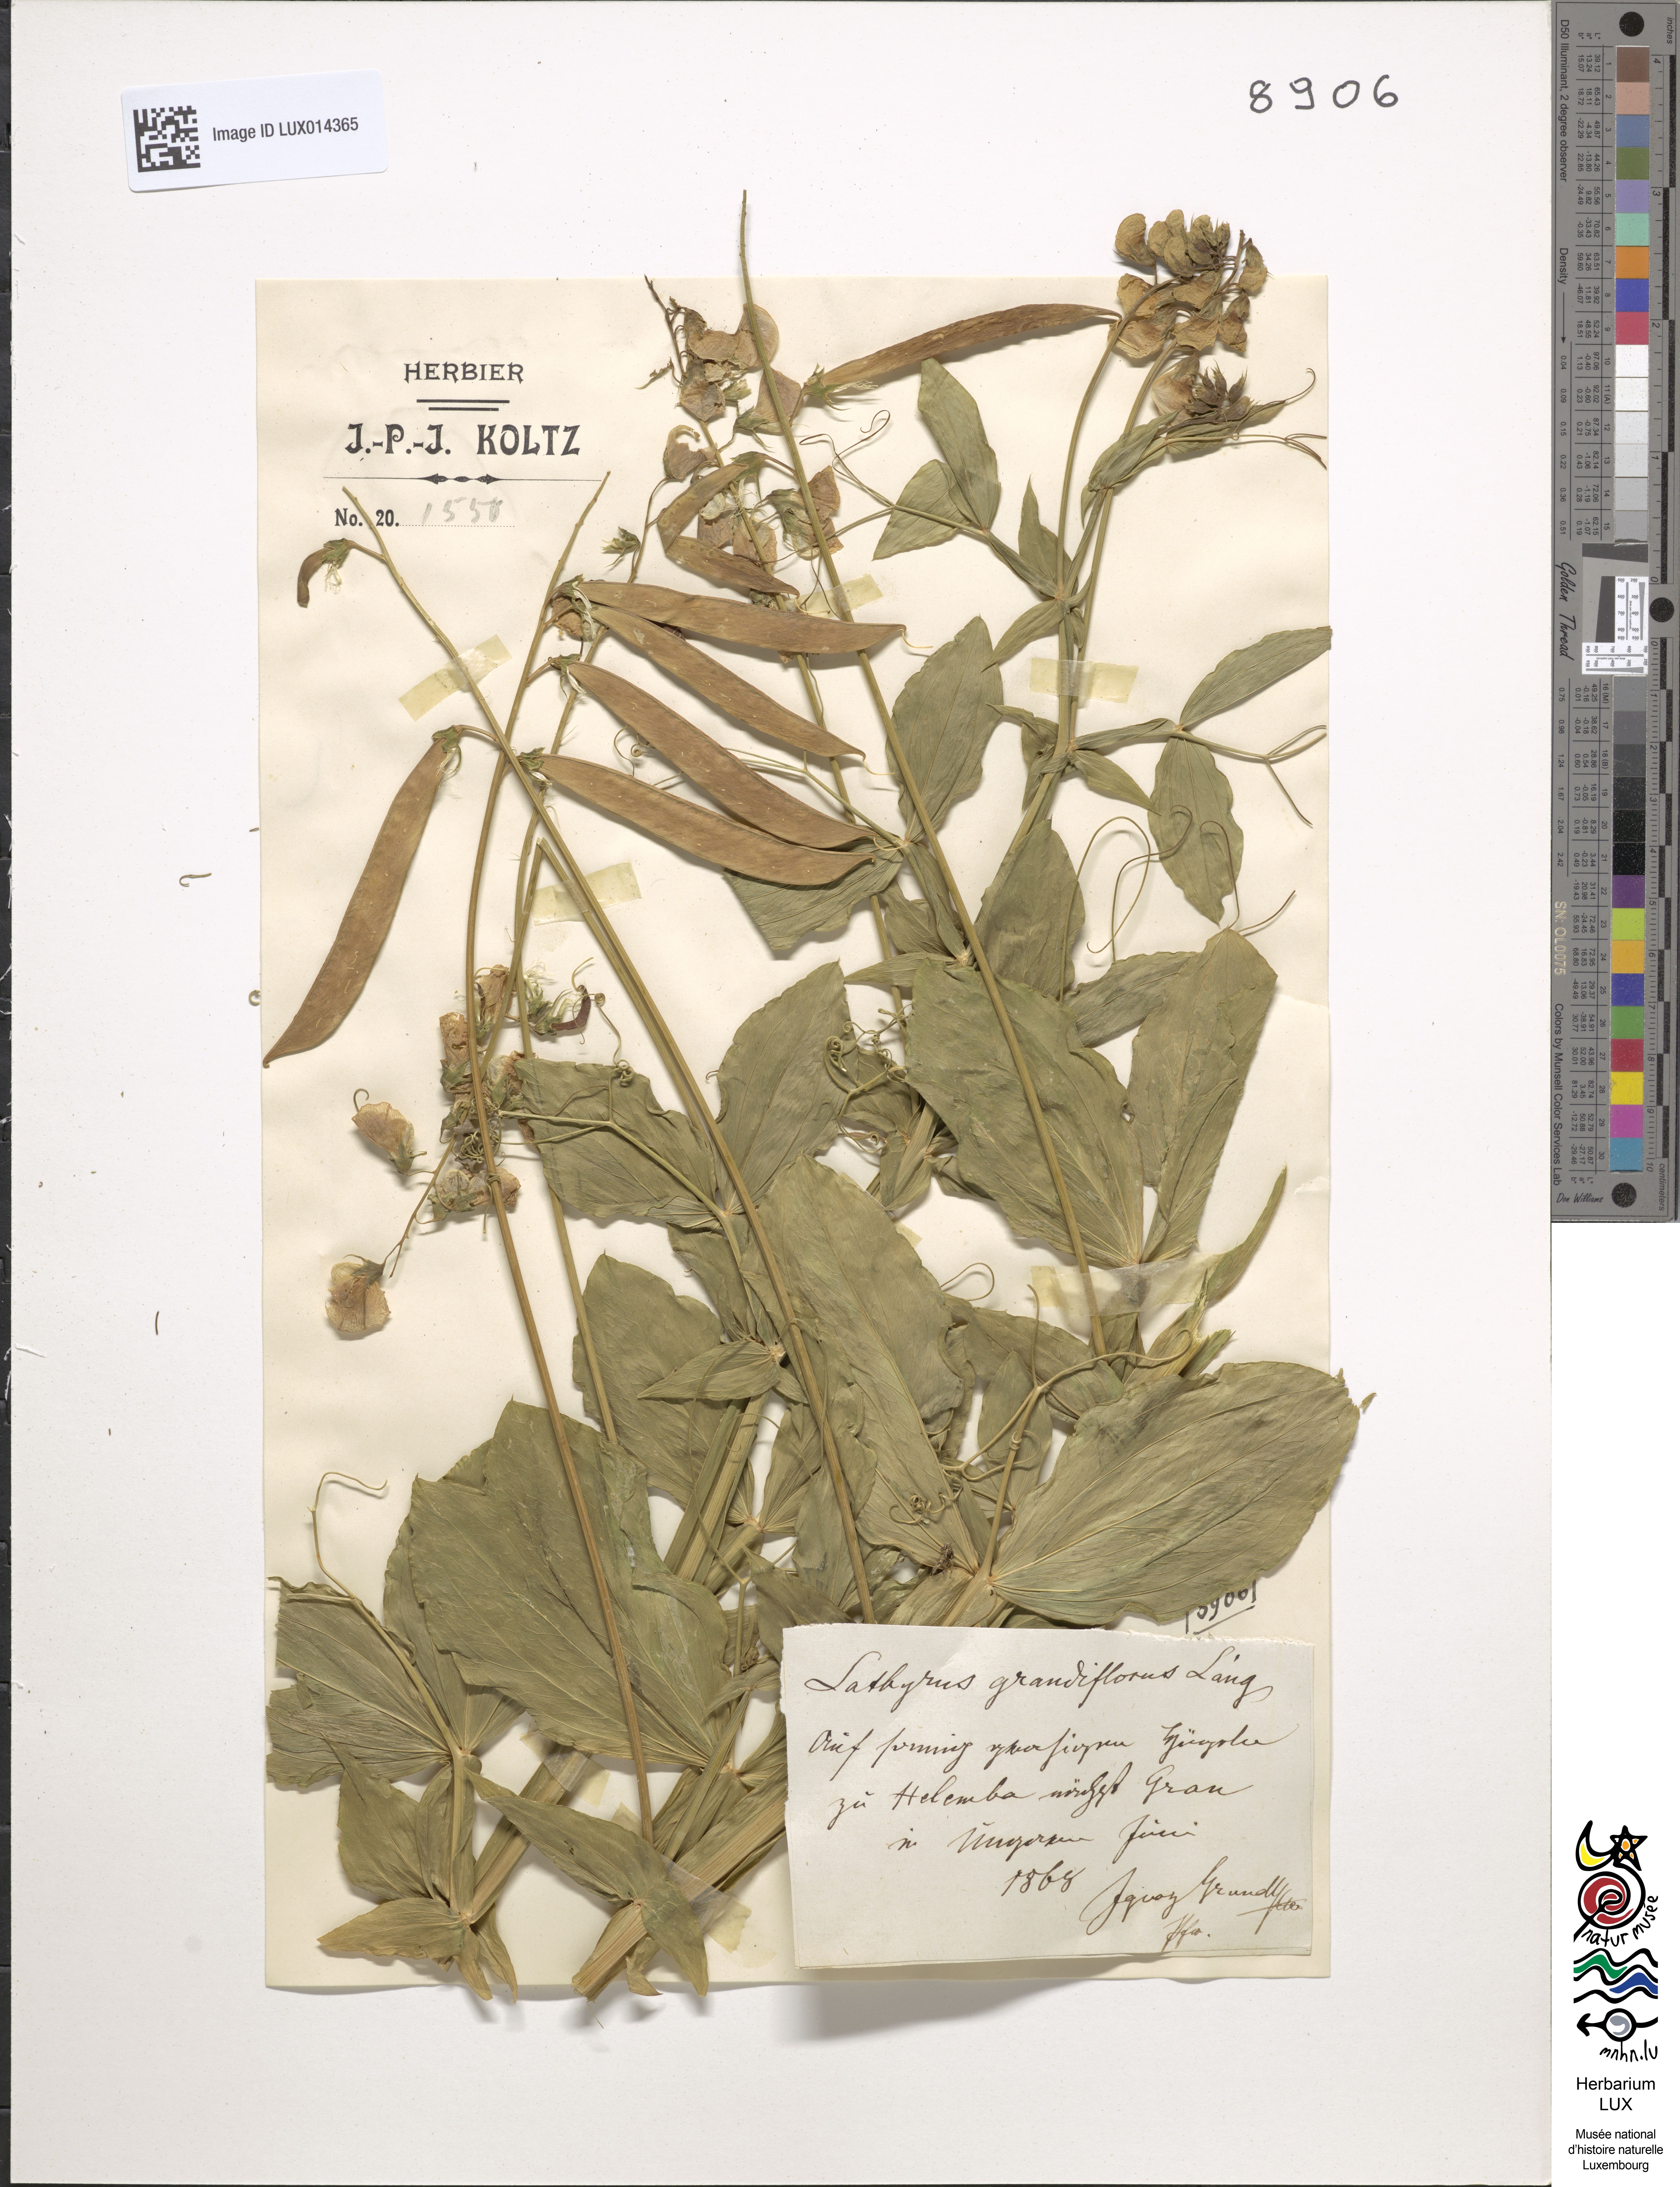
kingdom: Plantae
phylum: Tracheophyta
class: Magnoliopsida
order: Fabales
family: Fabaceae
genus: Lathyrus
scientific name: Lathyrus latifolius
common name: Perennial pea
